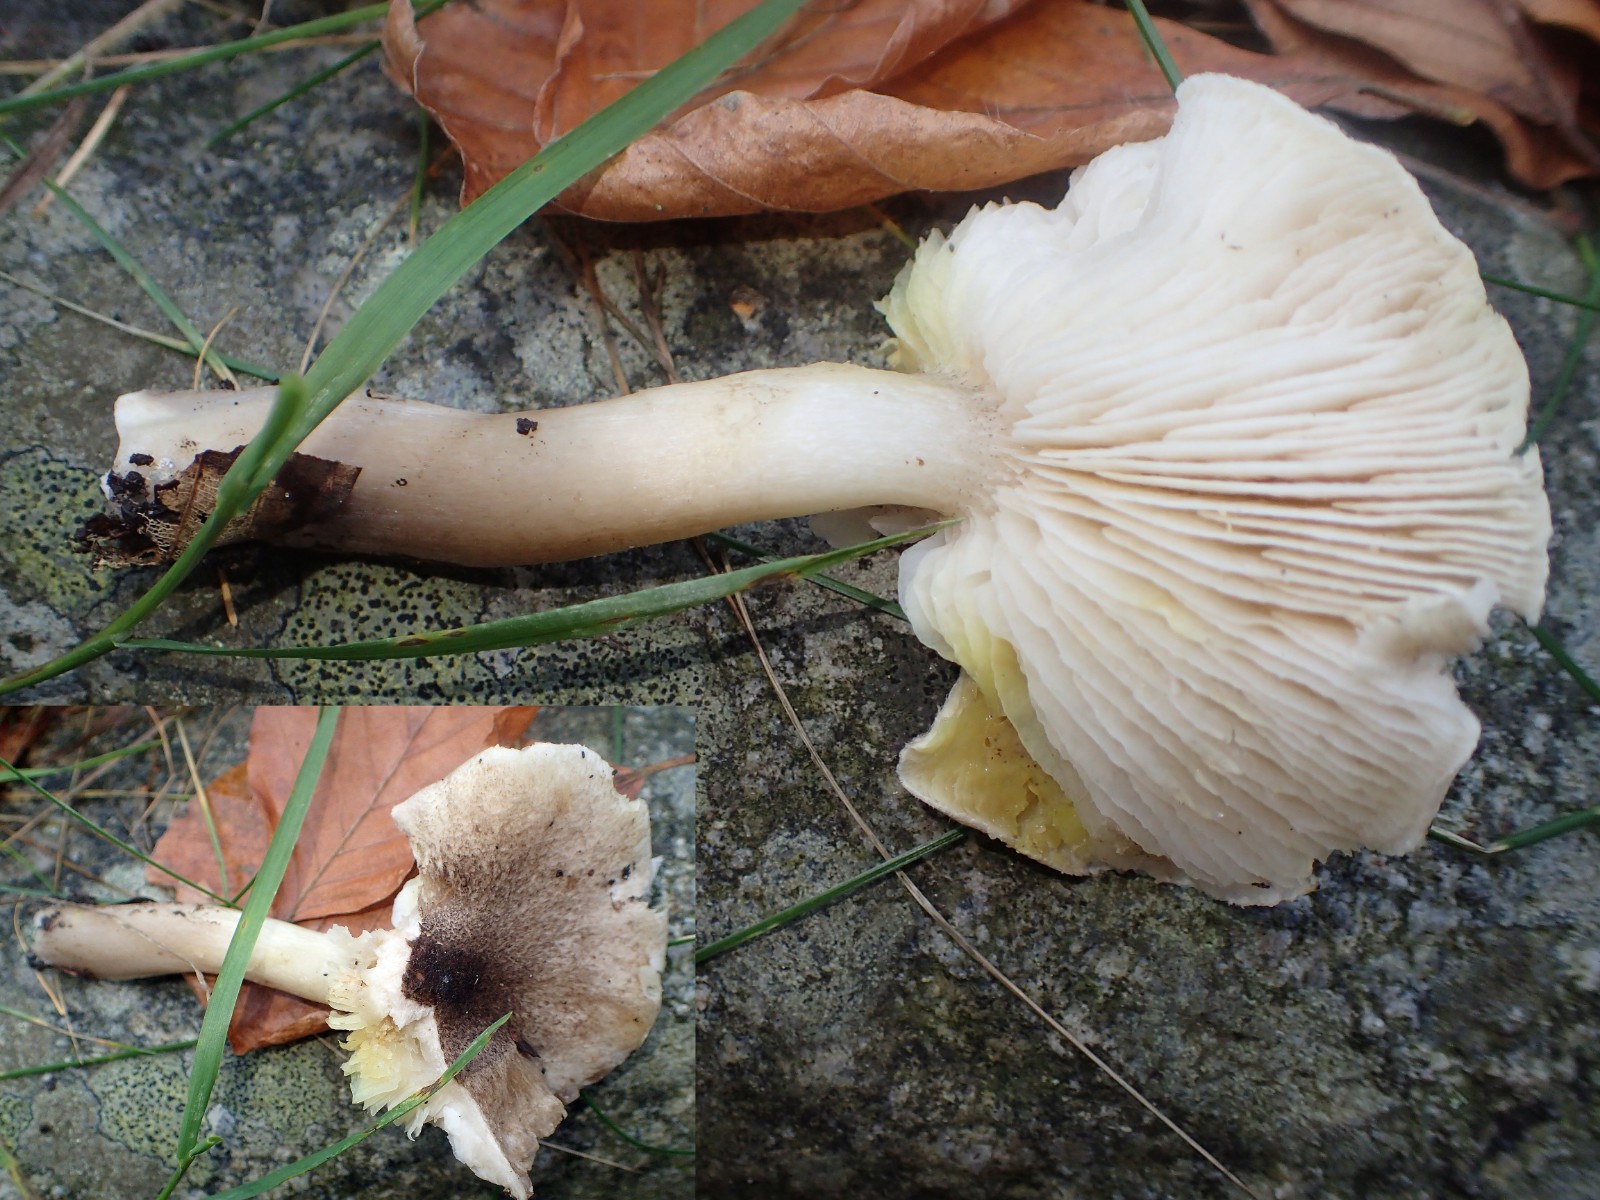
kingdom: Fungi
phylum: Basidiomycota
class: Agaricomycetes
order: Agaricales
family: Tricholomataceae
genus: Tricholoma
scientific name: Tricholoma scalpturatum
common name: gulplettet ridderhat
